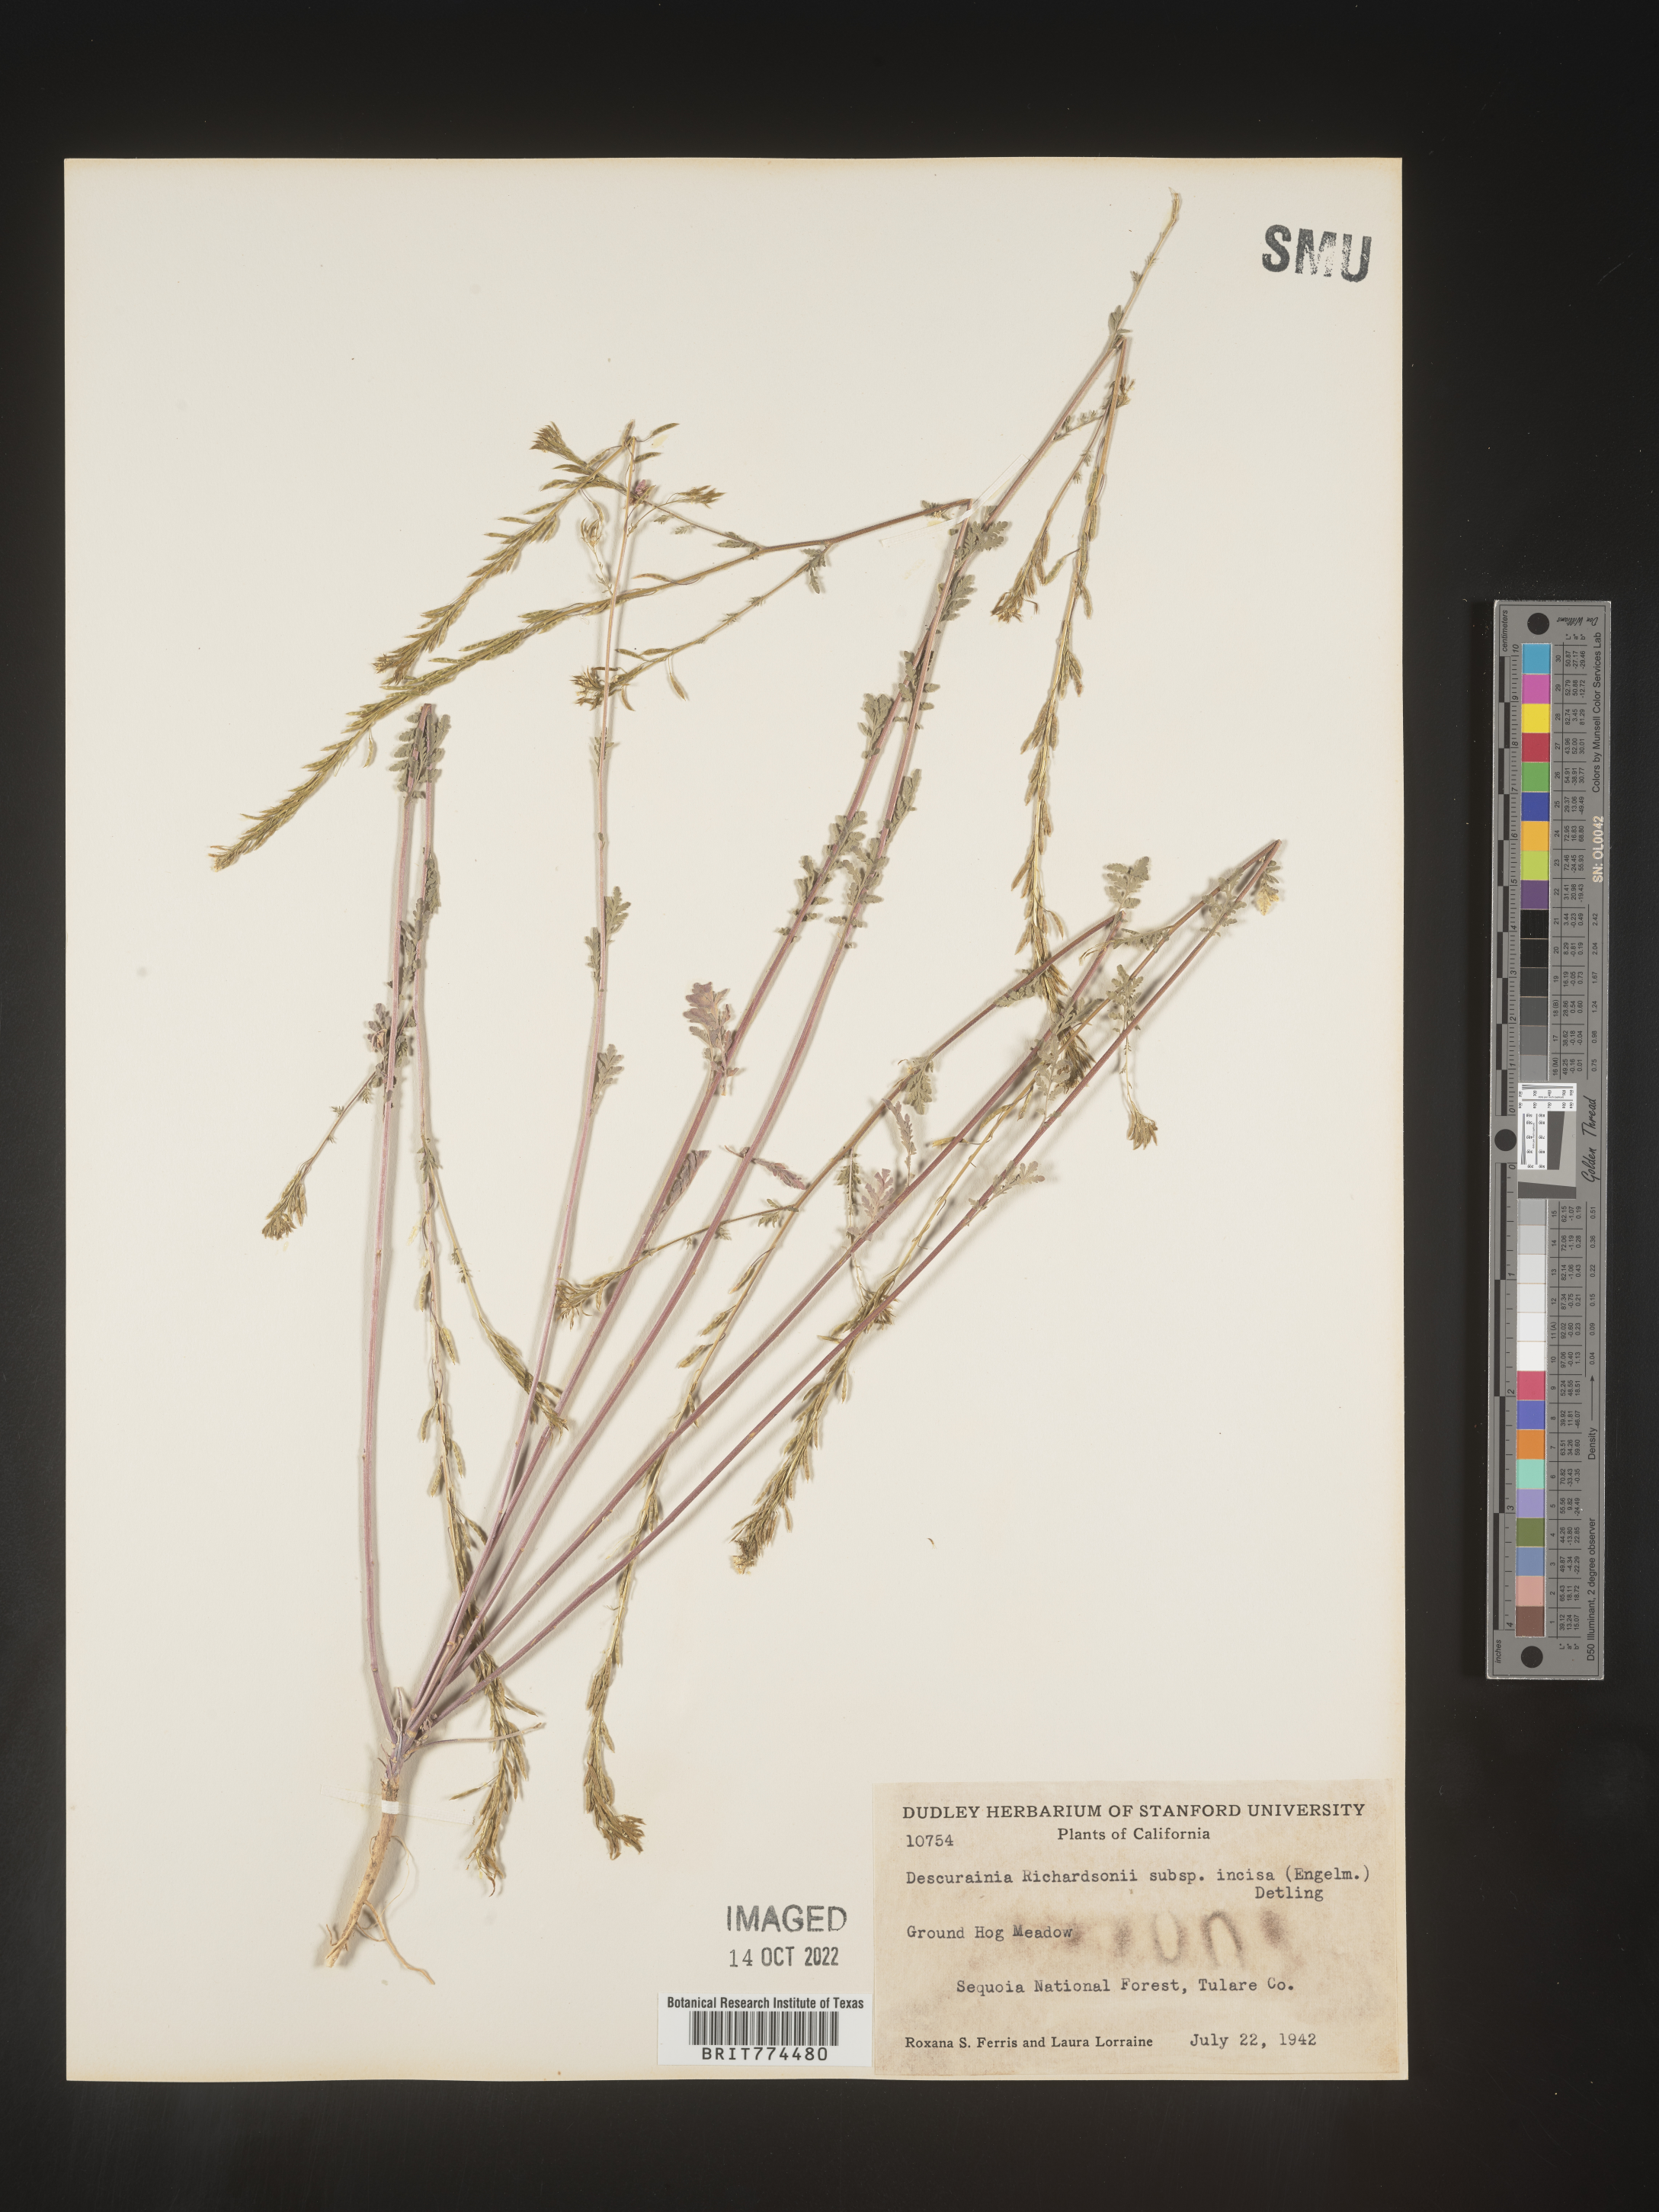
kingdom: Plantae
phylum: Tracheophyta
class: Magnoliopsida
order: Brassicales
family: Brassicaceae
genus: Descurainia
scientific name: Descurainia
